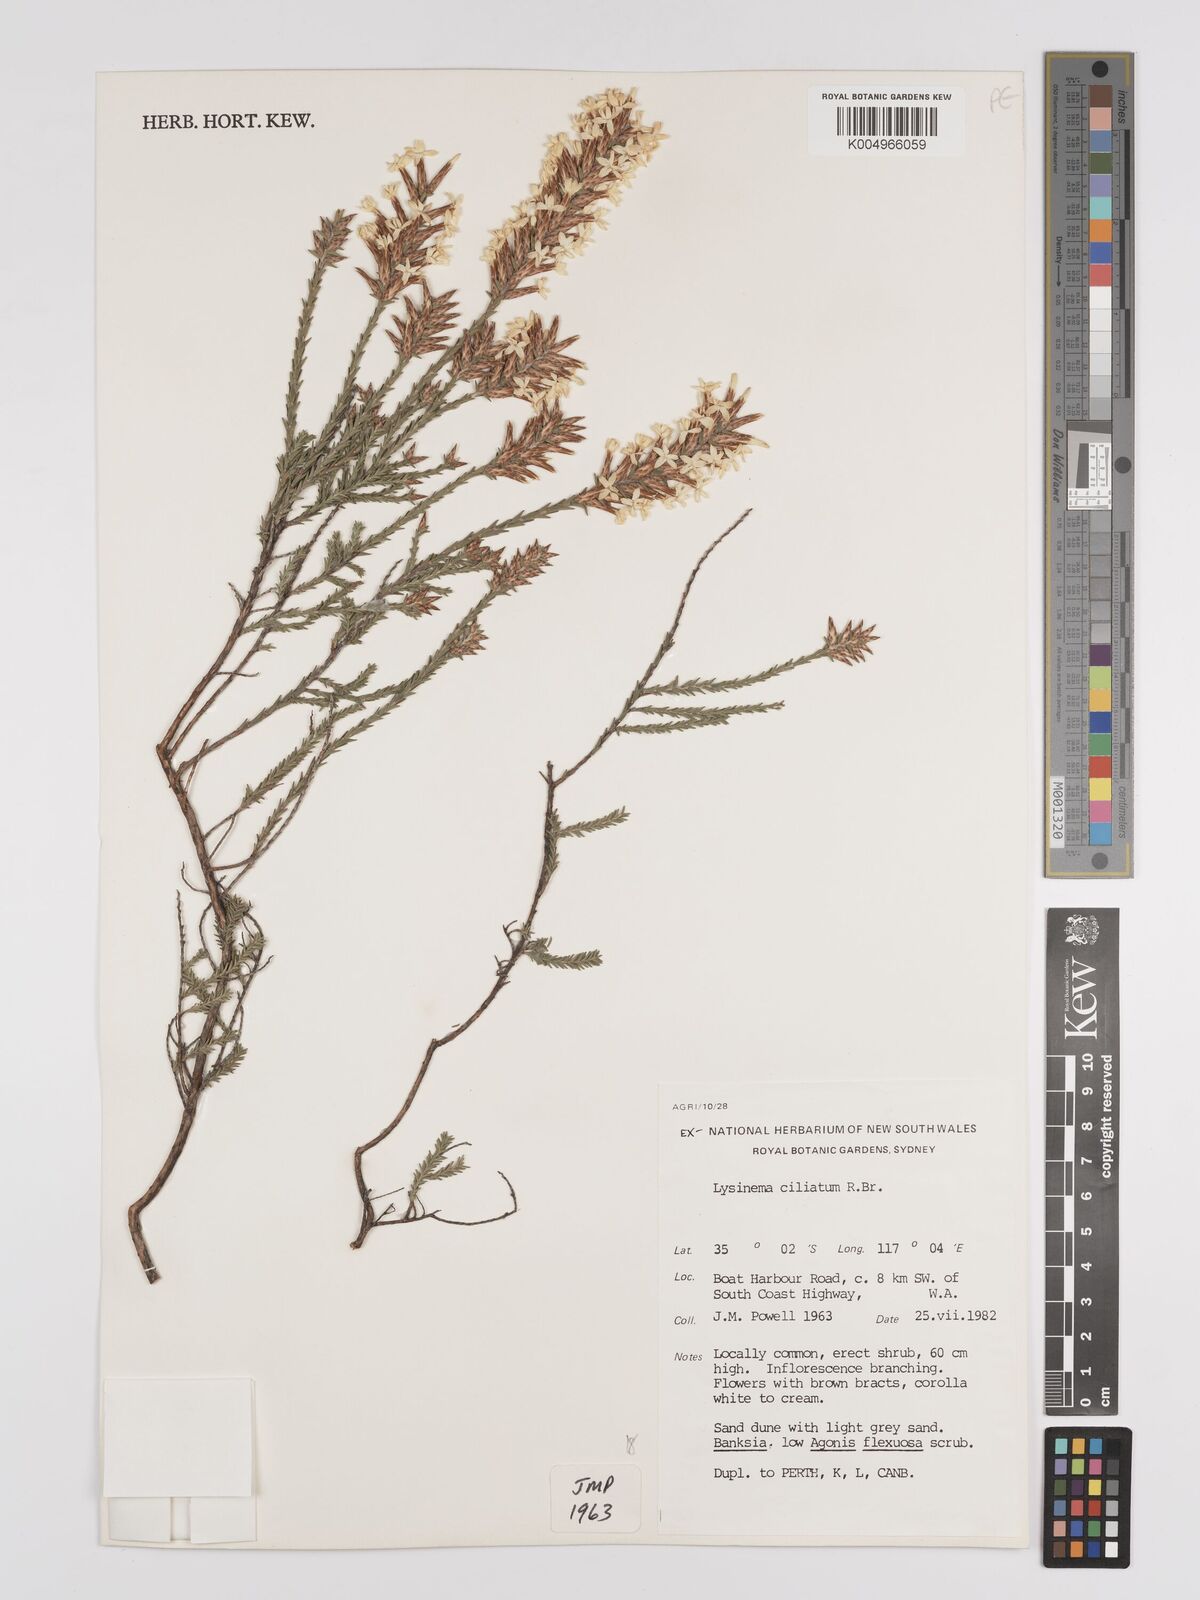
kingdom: Plantae
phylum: Tracheophyta
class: Magnoliopsida
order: Ericales
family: Ericaceae
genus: Lysinema
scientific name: Lysinema ciliatum
